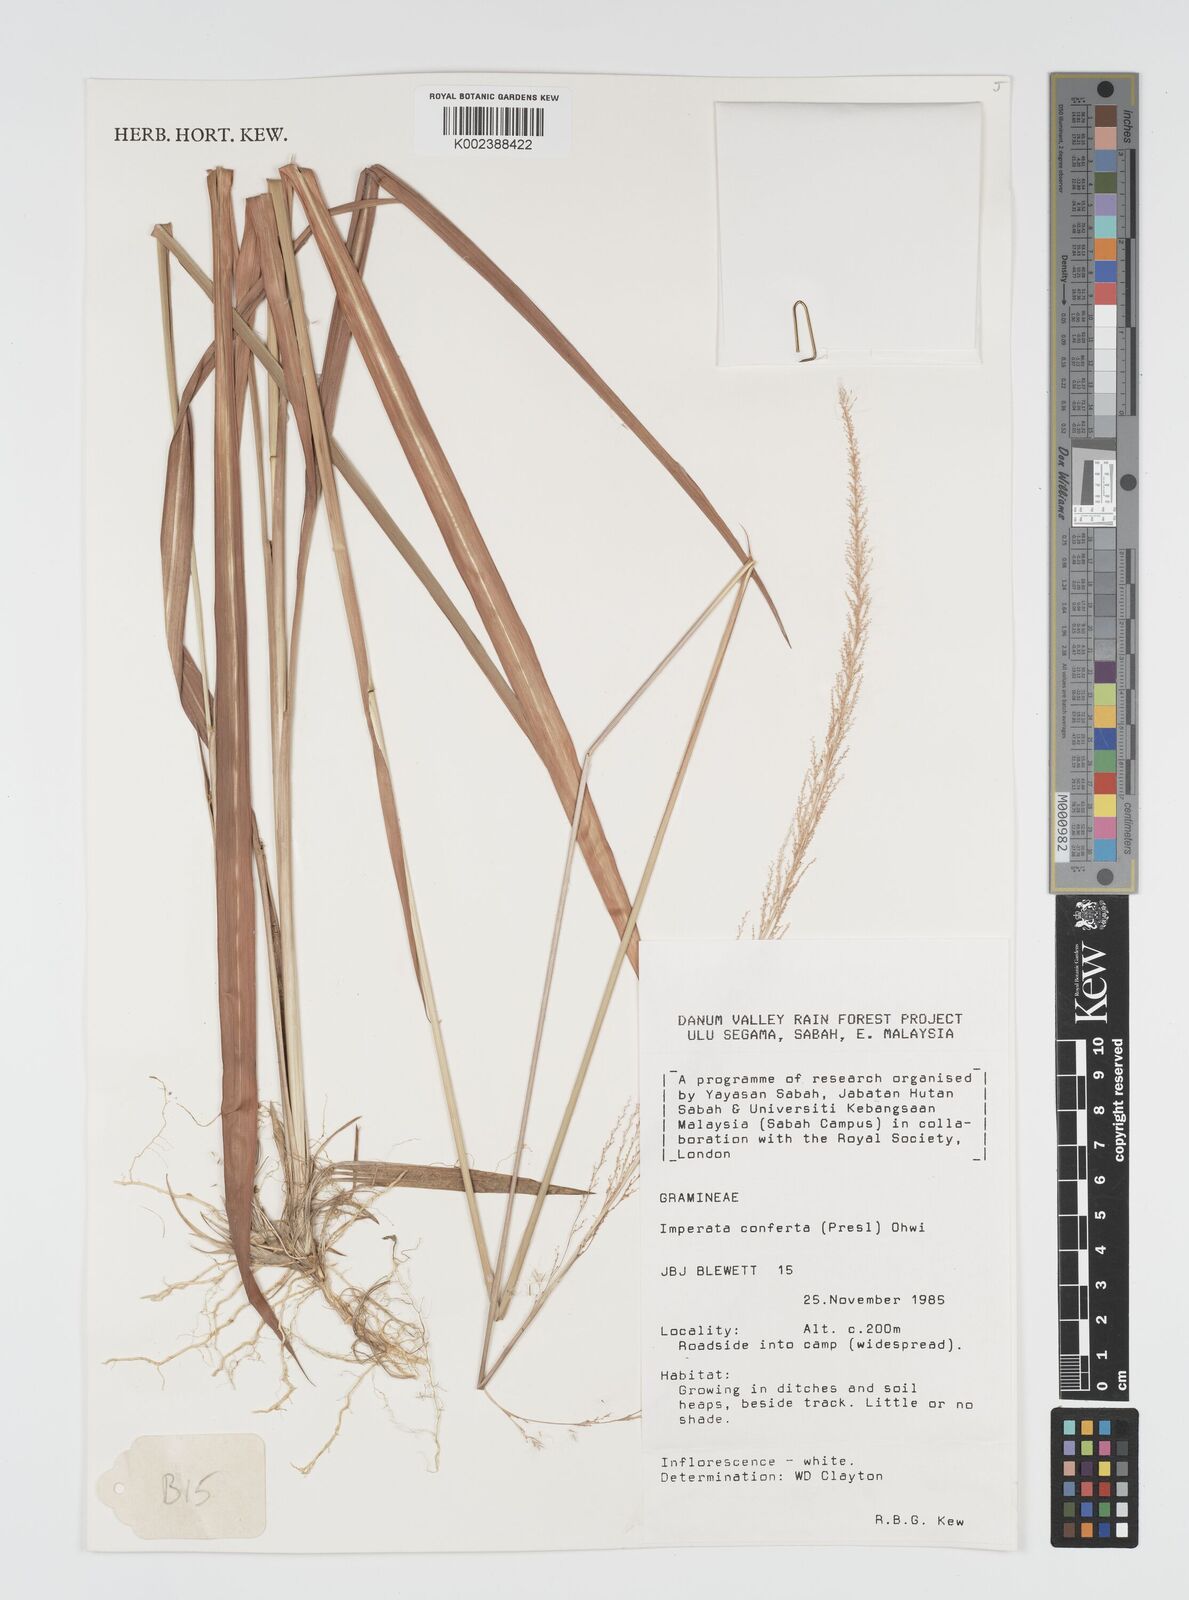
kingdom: Plantae
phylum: Tracheophyta
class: Liliopsida
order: Poales
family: Poaceae
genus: Imperata
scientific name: Imperata conferta
